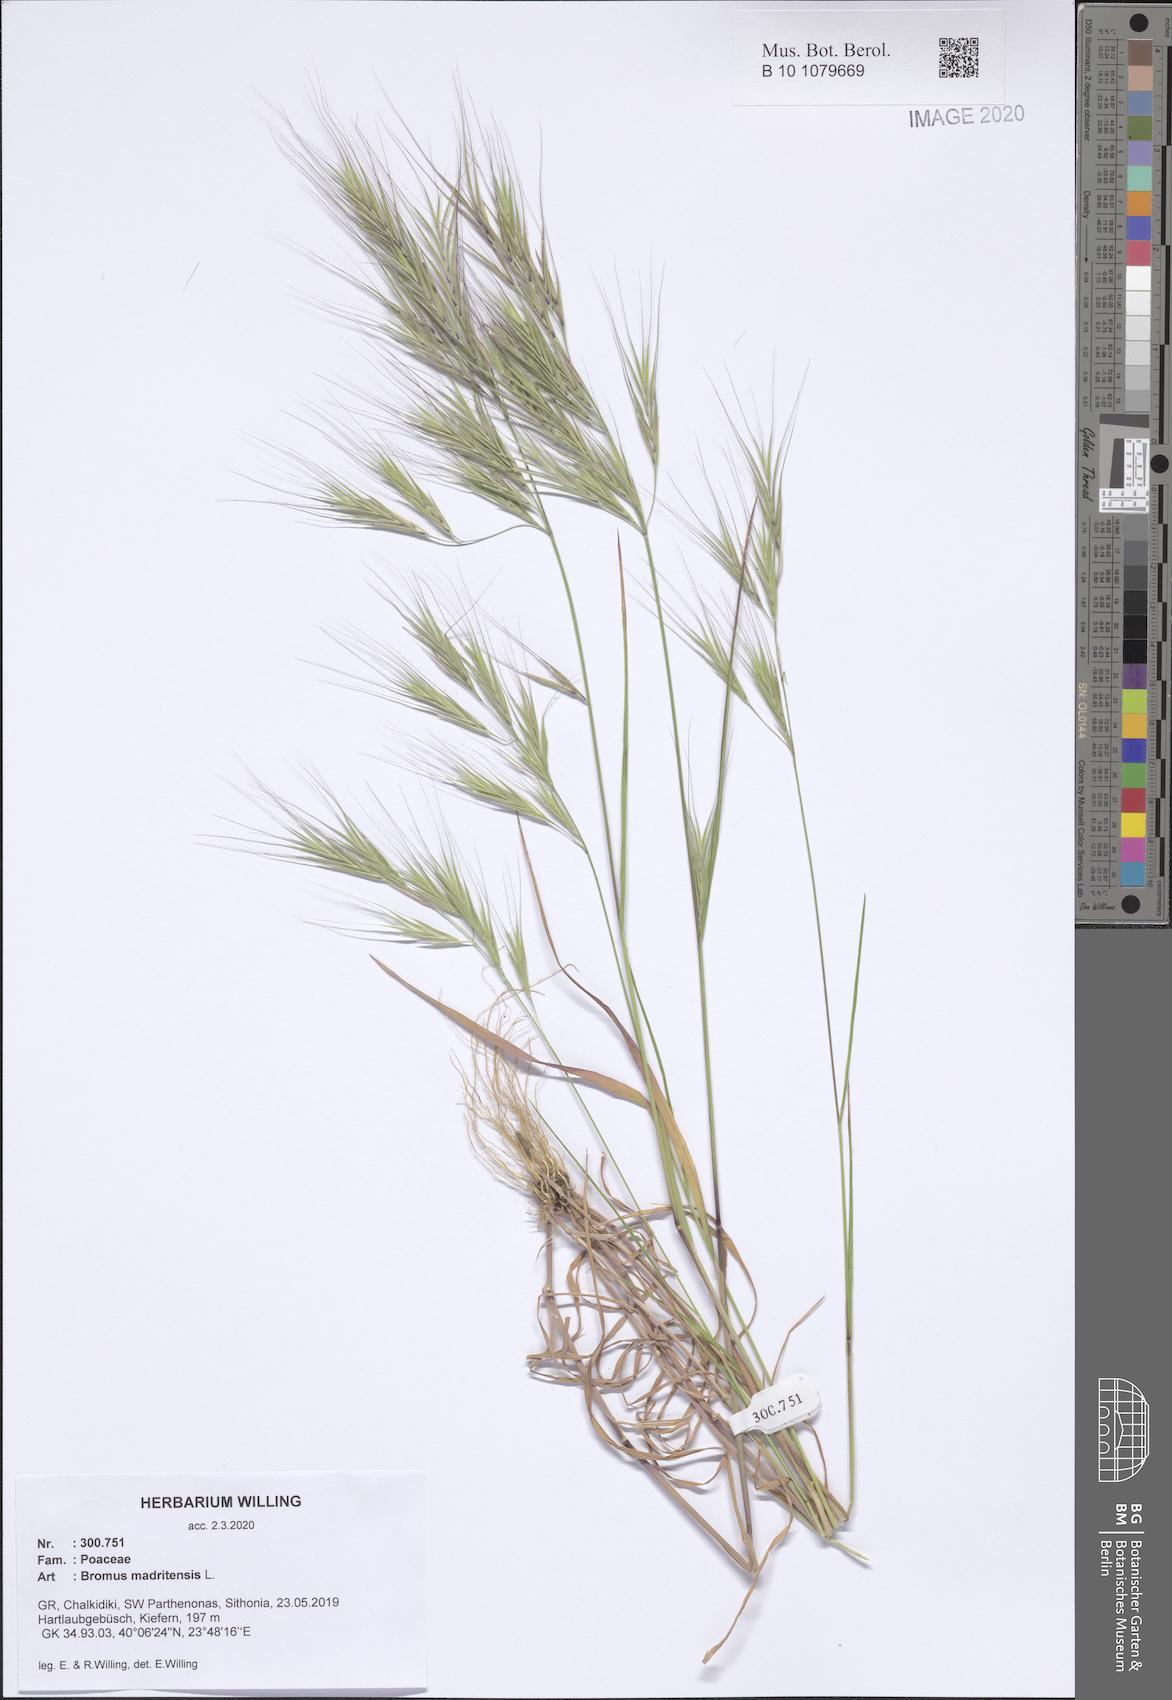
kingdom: Plantae
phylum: Tracheophyta
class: Liliopsida
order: Poales
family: Poaceae
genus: Bromus
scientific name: Bromus madritensis
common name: Compact brome
